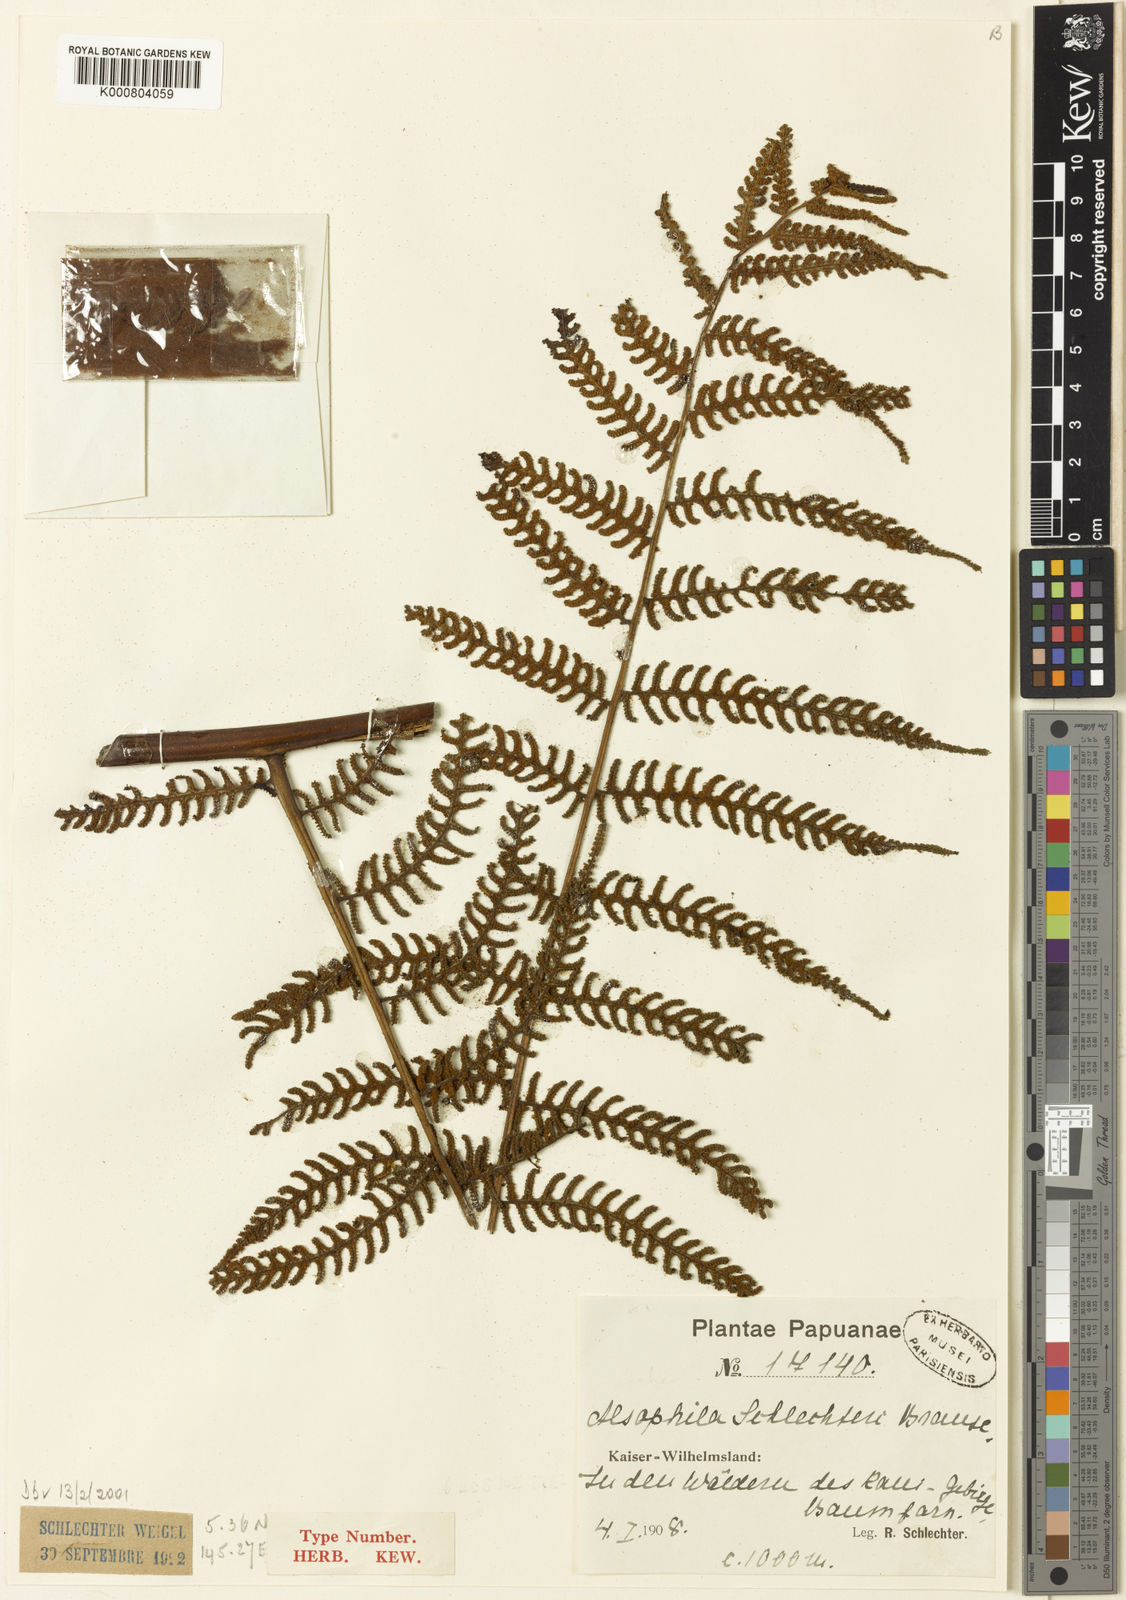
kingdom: Plantae
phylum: Tracheophyta
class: Polypodiopsida
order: Cyatheales
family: Cyatheaceae
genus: Gymnosphaera
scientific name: Gymnosphaera schlechteri
